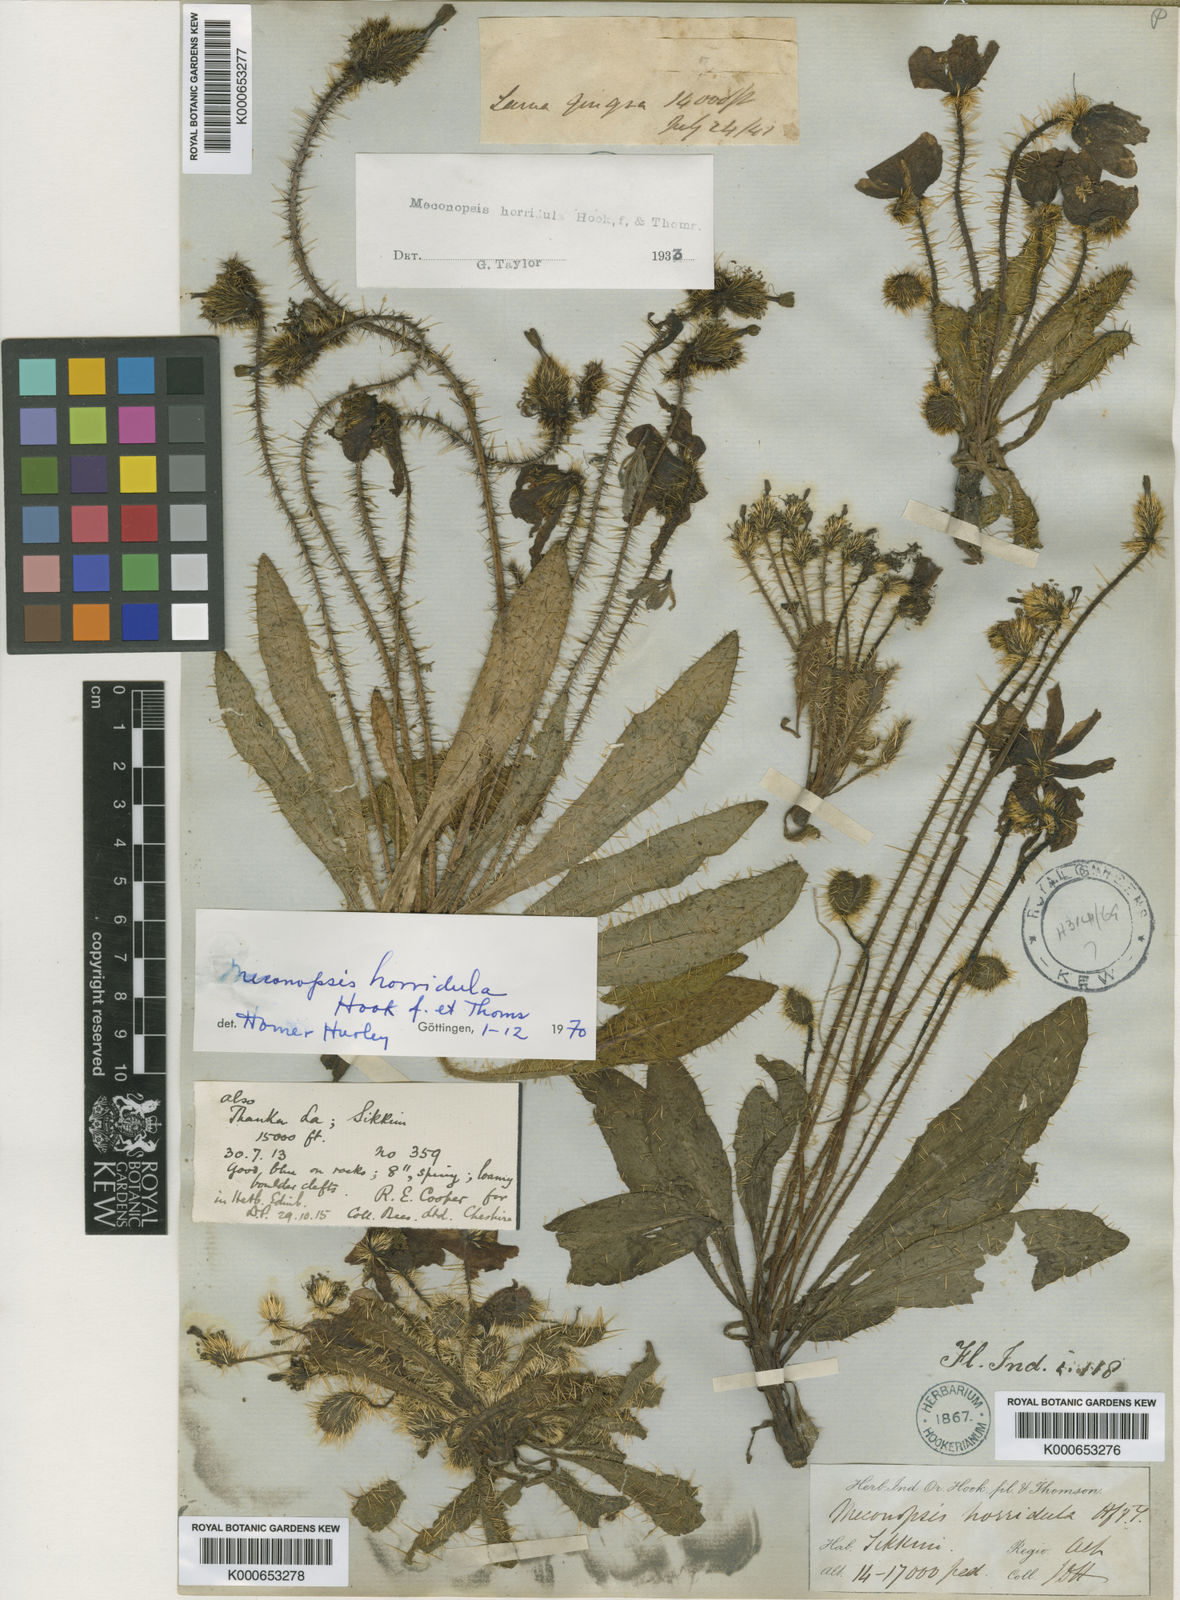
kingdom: Plantae
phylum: Tracheophyta
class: Magnoliopsida
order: Ranunculales
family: Papaveraceae
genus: Meconopsis
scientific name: Meconopsis horridula
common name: Prickly blue-poppy
